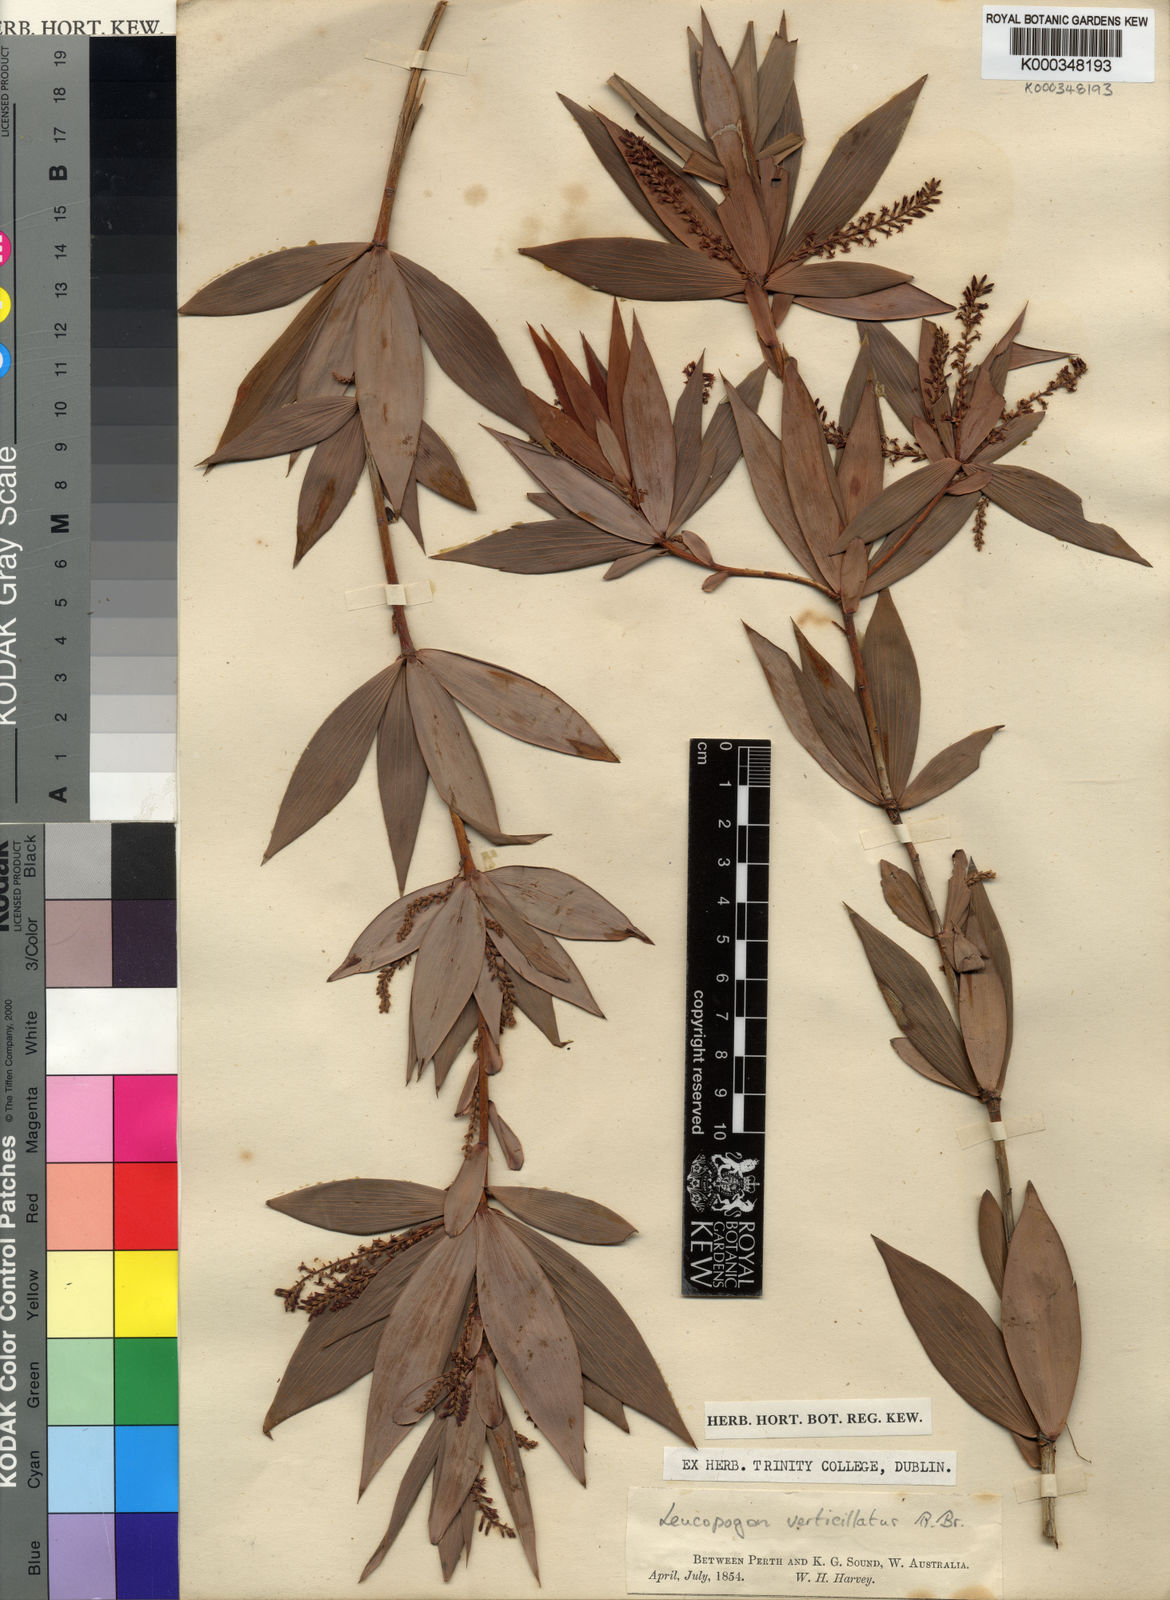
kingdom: Plantae
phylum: Tracheophyta
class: Magnoliopsida
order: Ericales
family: Ericaceae
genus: Leucopogon
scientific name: Leucopogon verticillatus
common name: Tasselshrub
